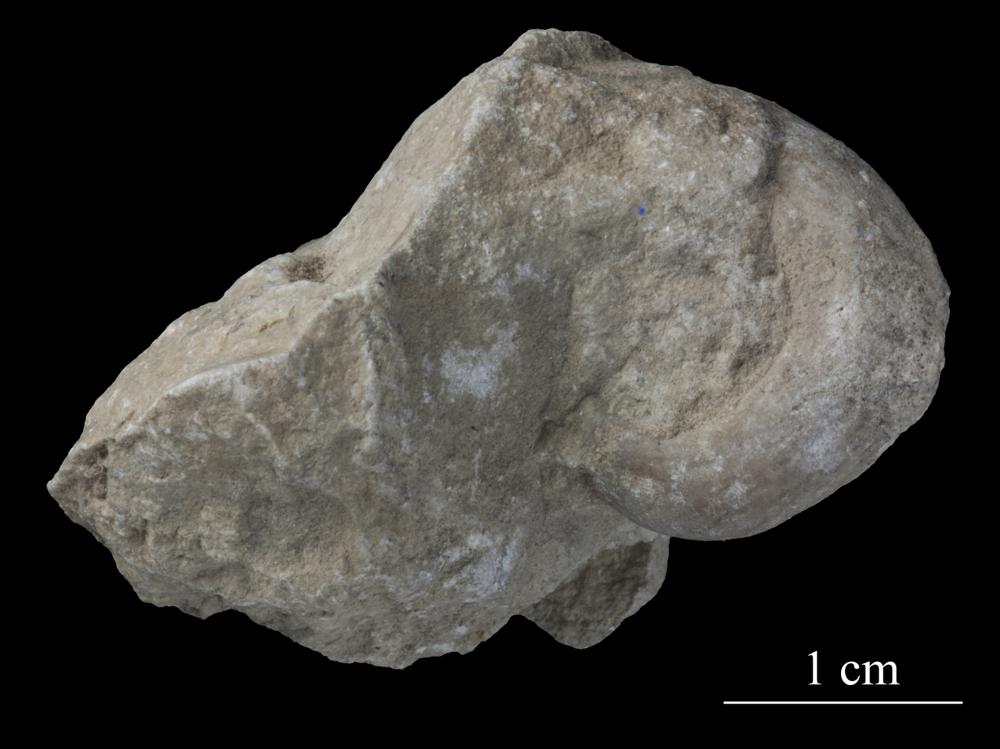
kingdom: Animalia
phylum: Mollusca
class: Gastropoda
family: Bucaniidae
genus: Salpingostoma
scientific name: Salpingostoma Bellerophon megalostoma
